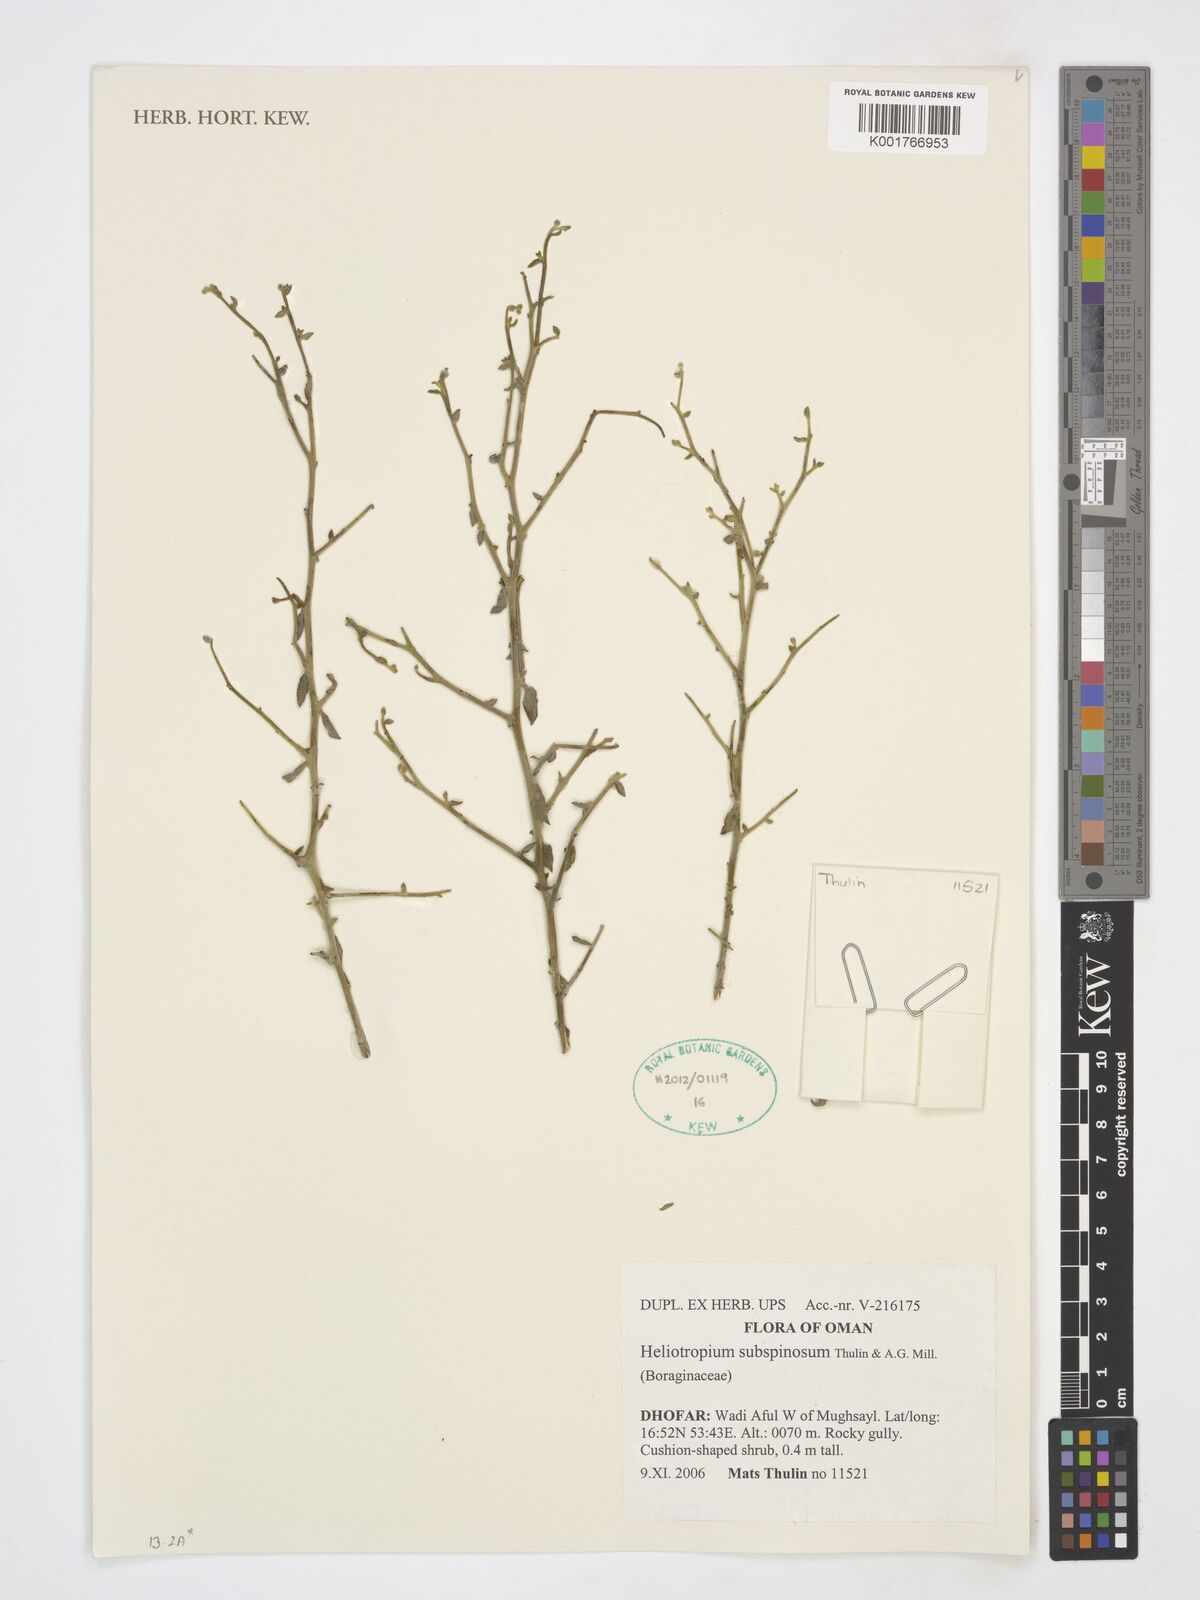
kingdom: Plantae
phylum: Tracheophyta
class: Magnoliopsida
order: Boraginales
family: Heliotropiaceae
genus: Heliotropium
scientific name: Heliotropium subspinosum
